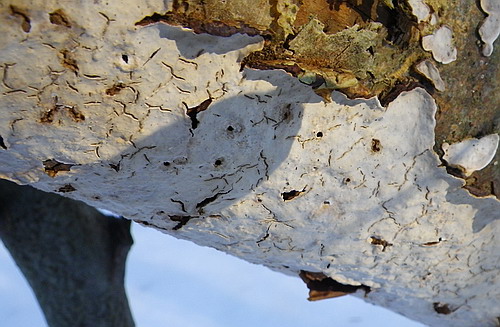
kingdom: Fungi
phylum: Basidiomycota
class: Agaricomycetes
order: Agaricales
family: Physalacriaceae
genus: Cylindrobasidium
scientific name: Cylindrobasidium evolvens
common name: sprækkehinde
